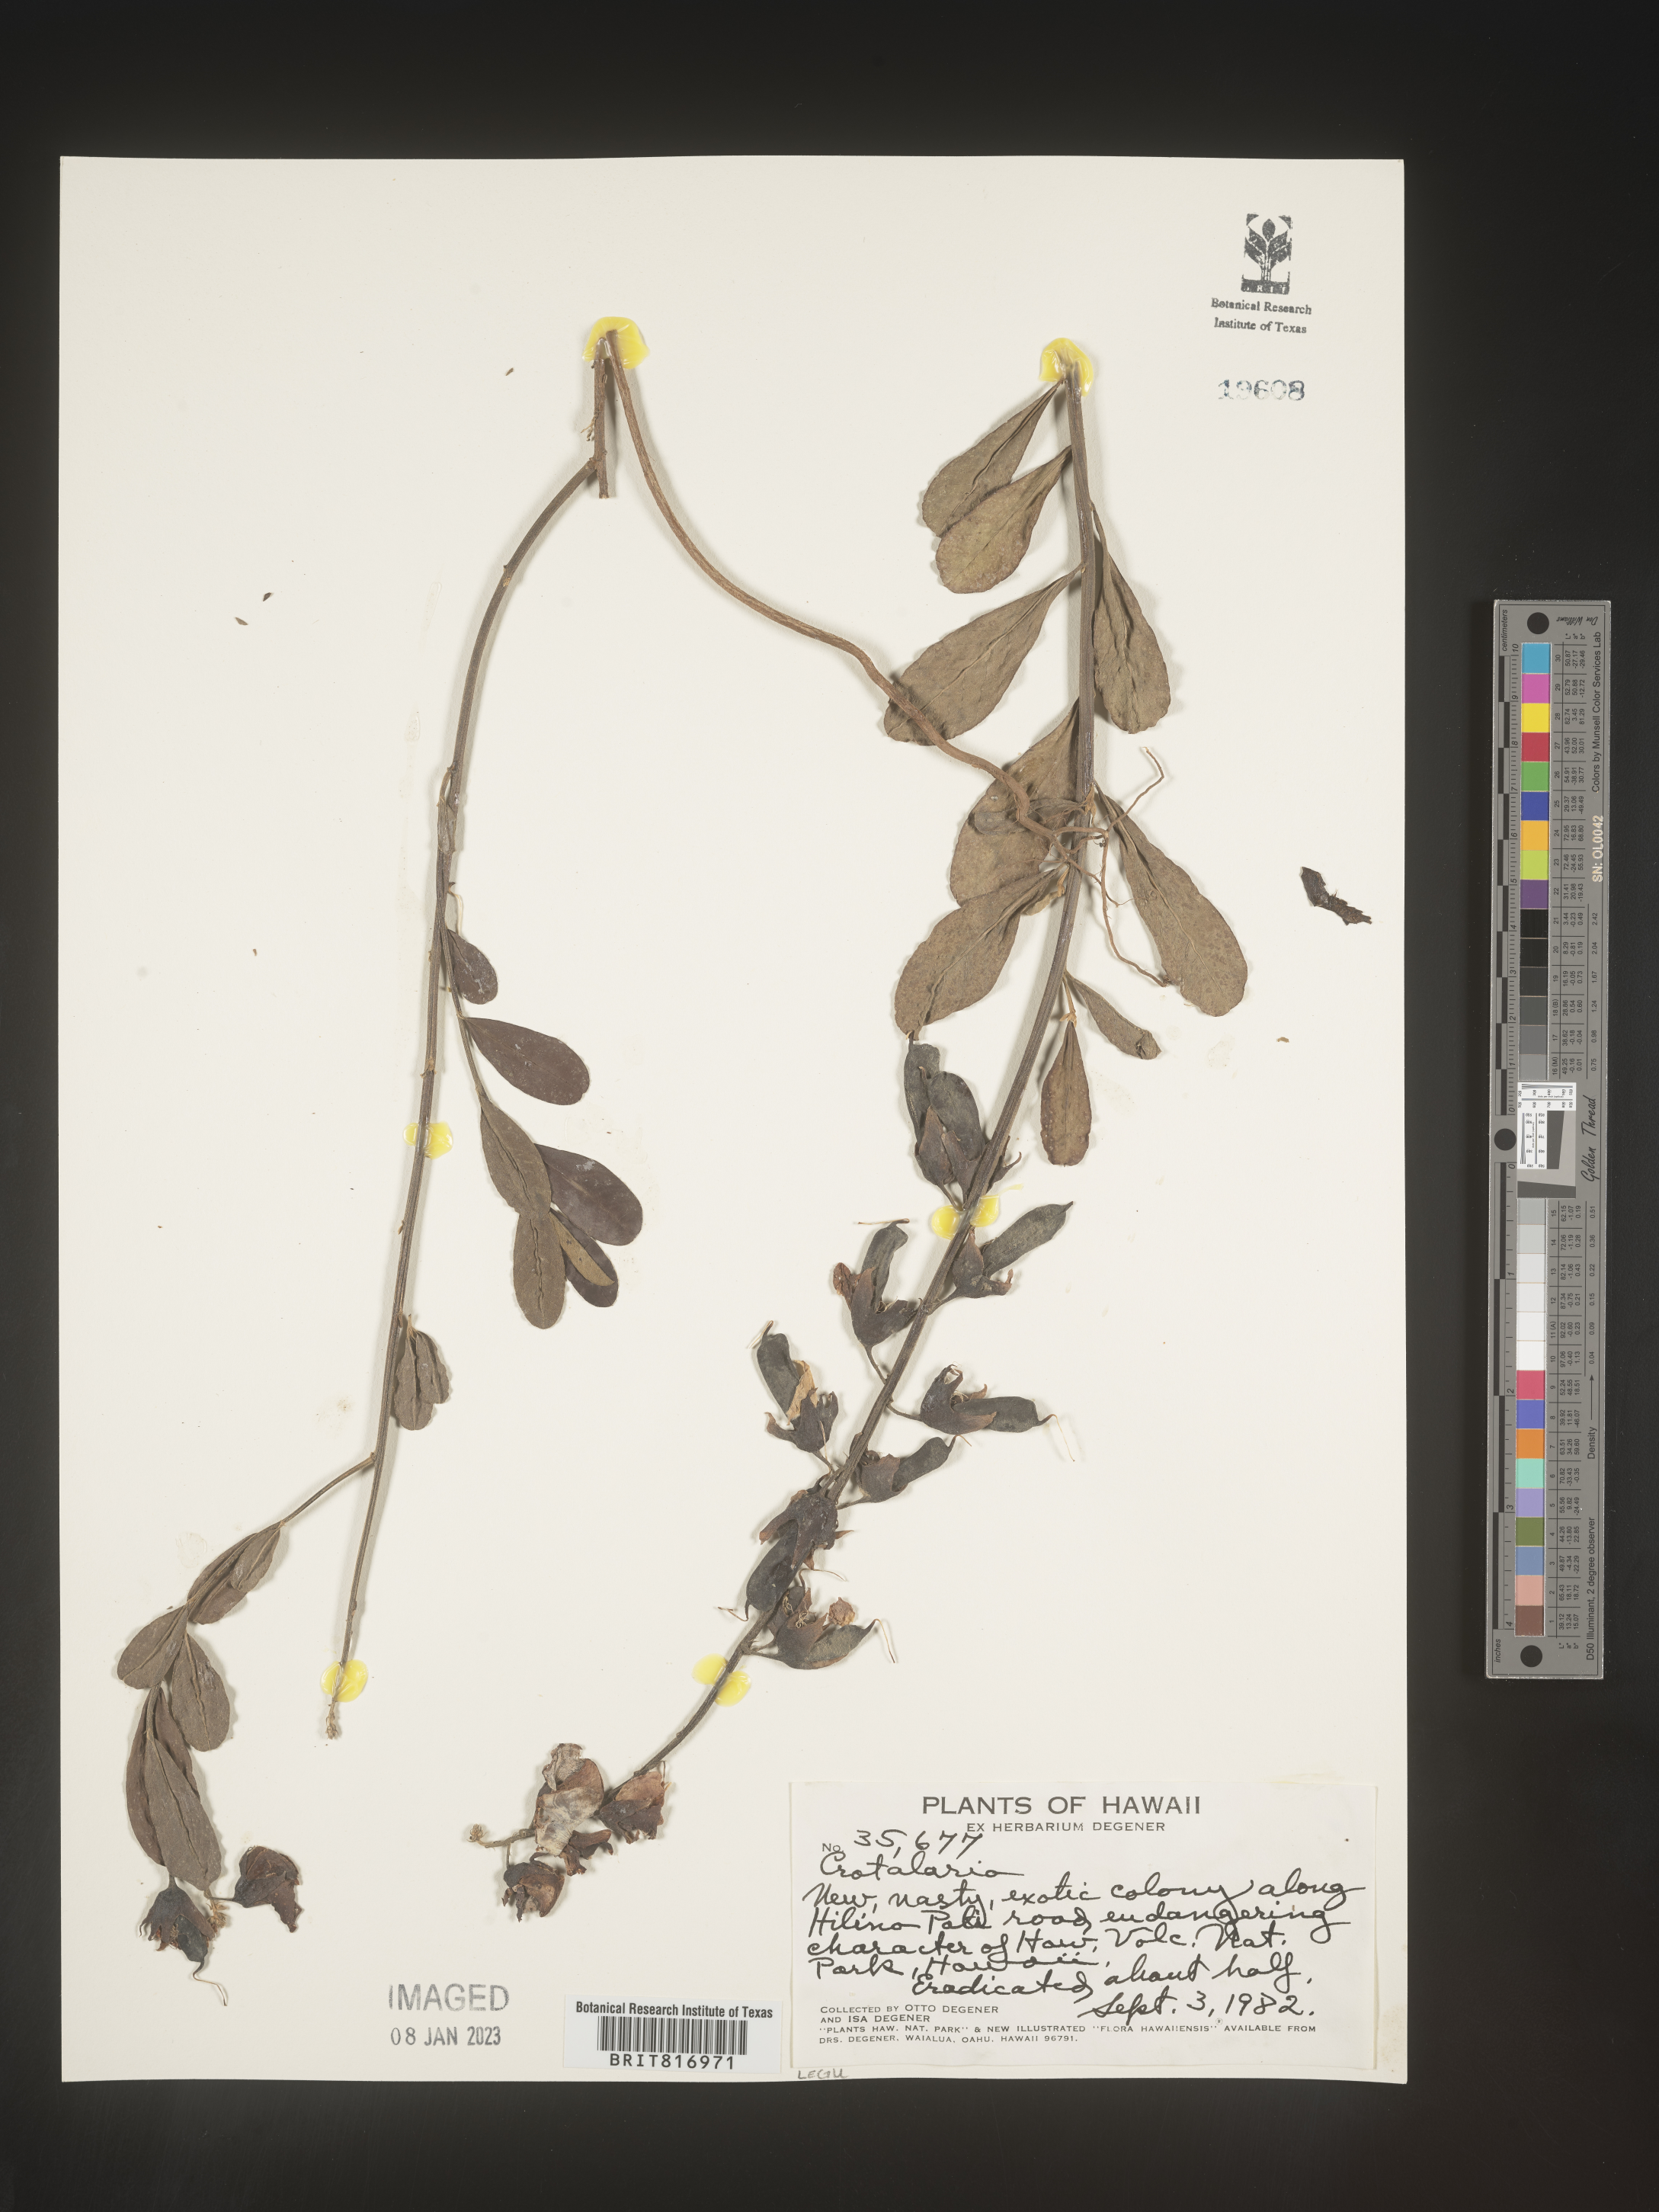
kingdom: Plantae
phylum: Tracheophyta
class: Magnoliopsida
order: Fabales
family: Fabaceae
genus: Crotalaria
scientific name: Crotalaria
